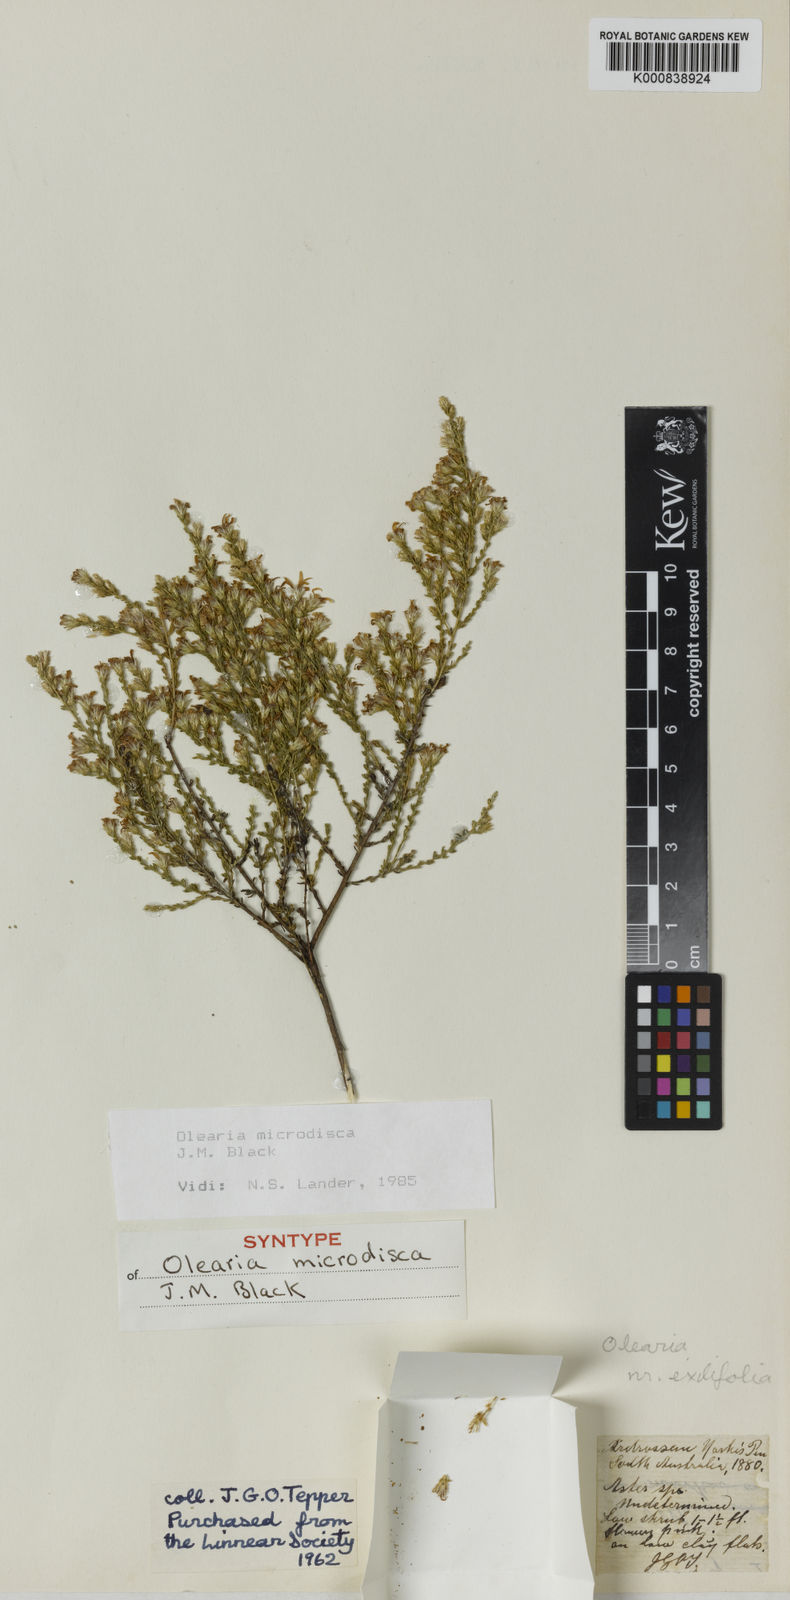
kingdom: Plantae
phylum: Tracheophyta
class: Magnoliopsida
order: Asterales
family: Asteraceae
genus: Olearia
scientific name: Olearia microdisca
